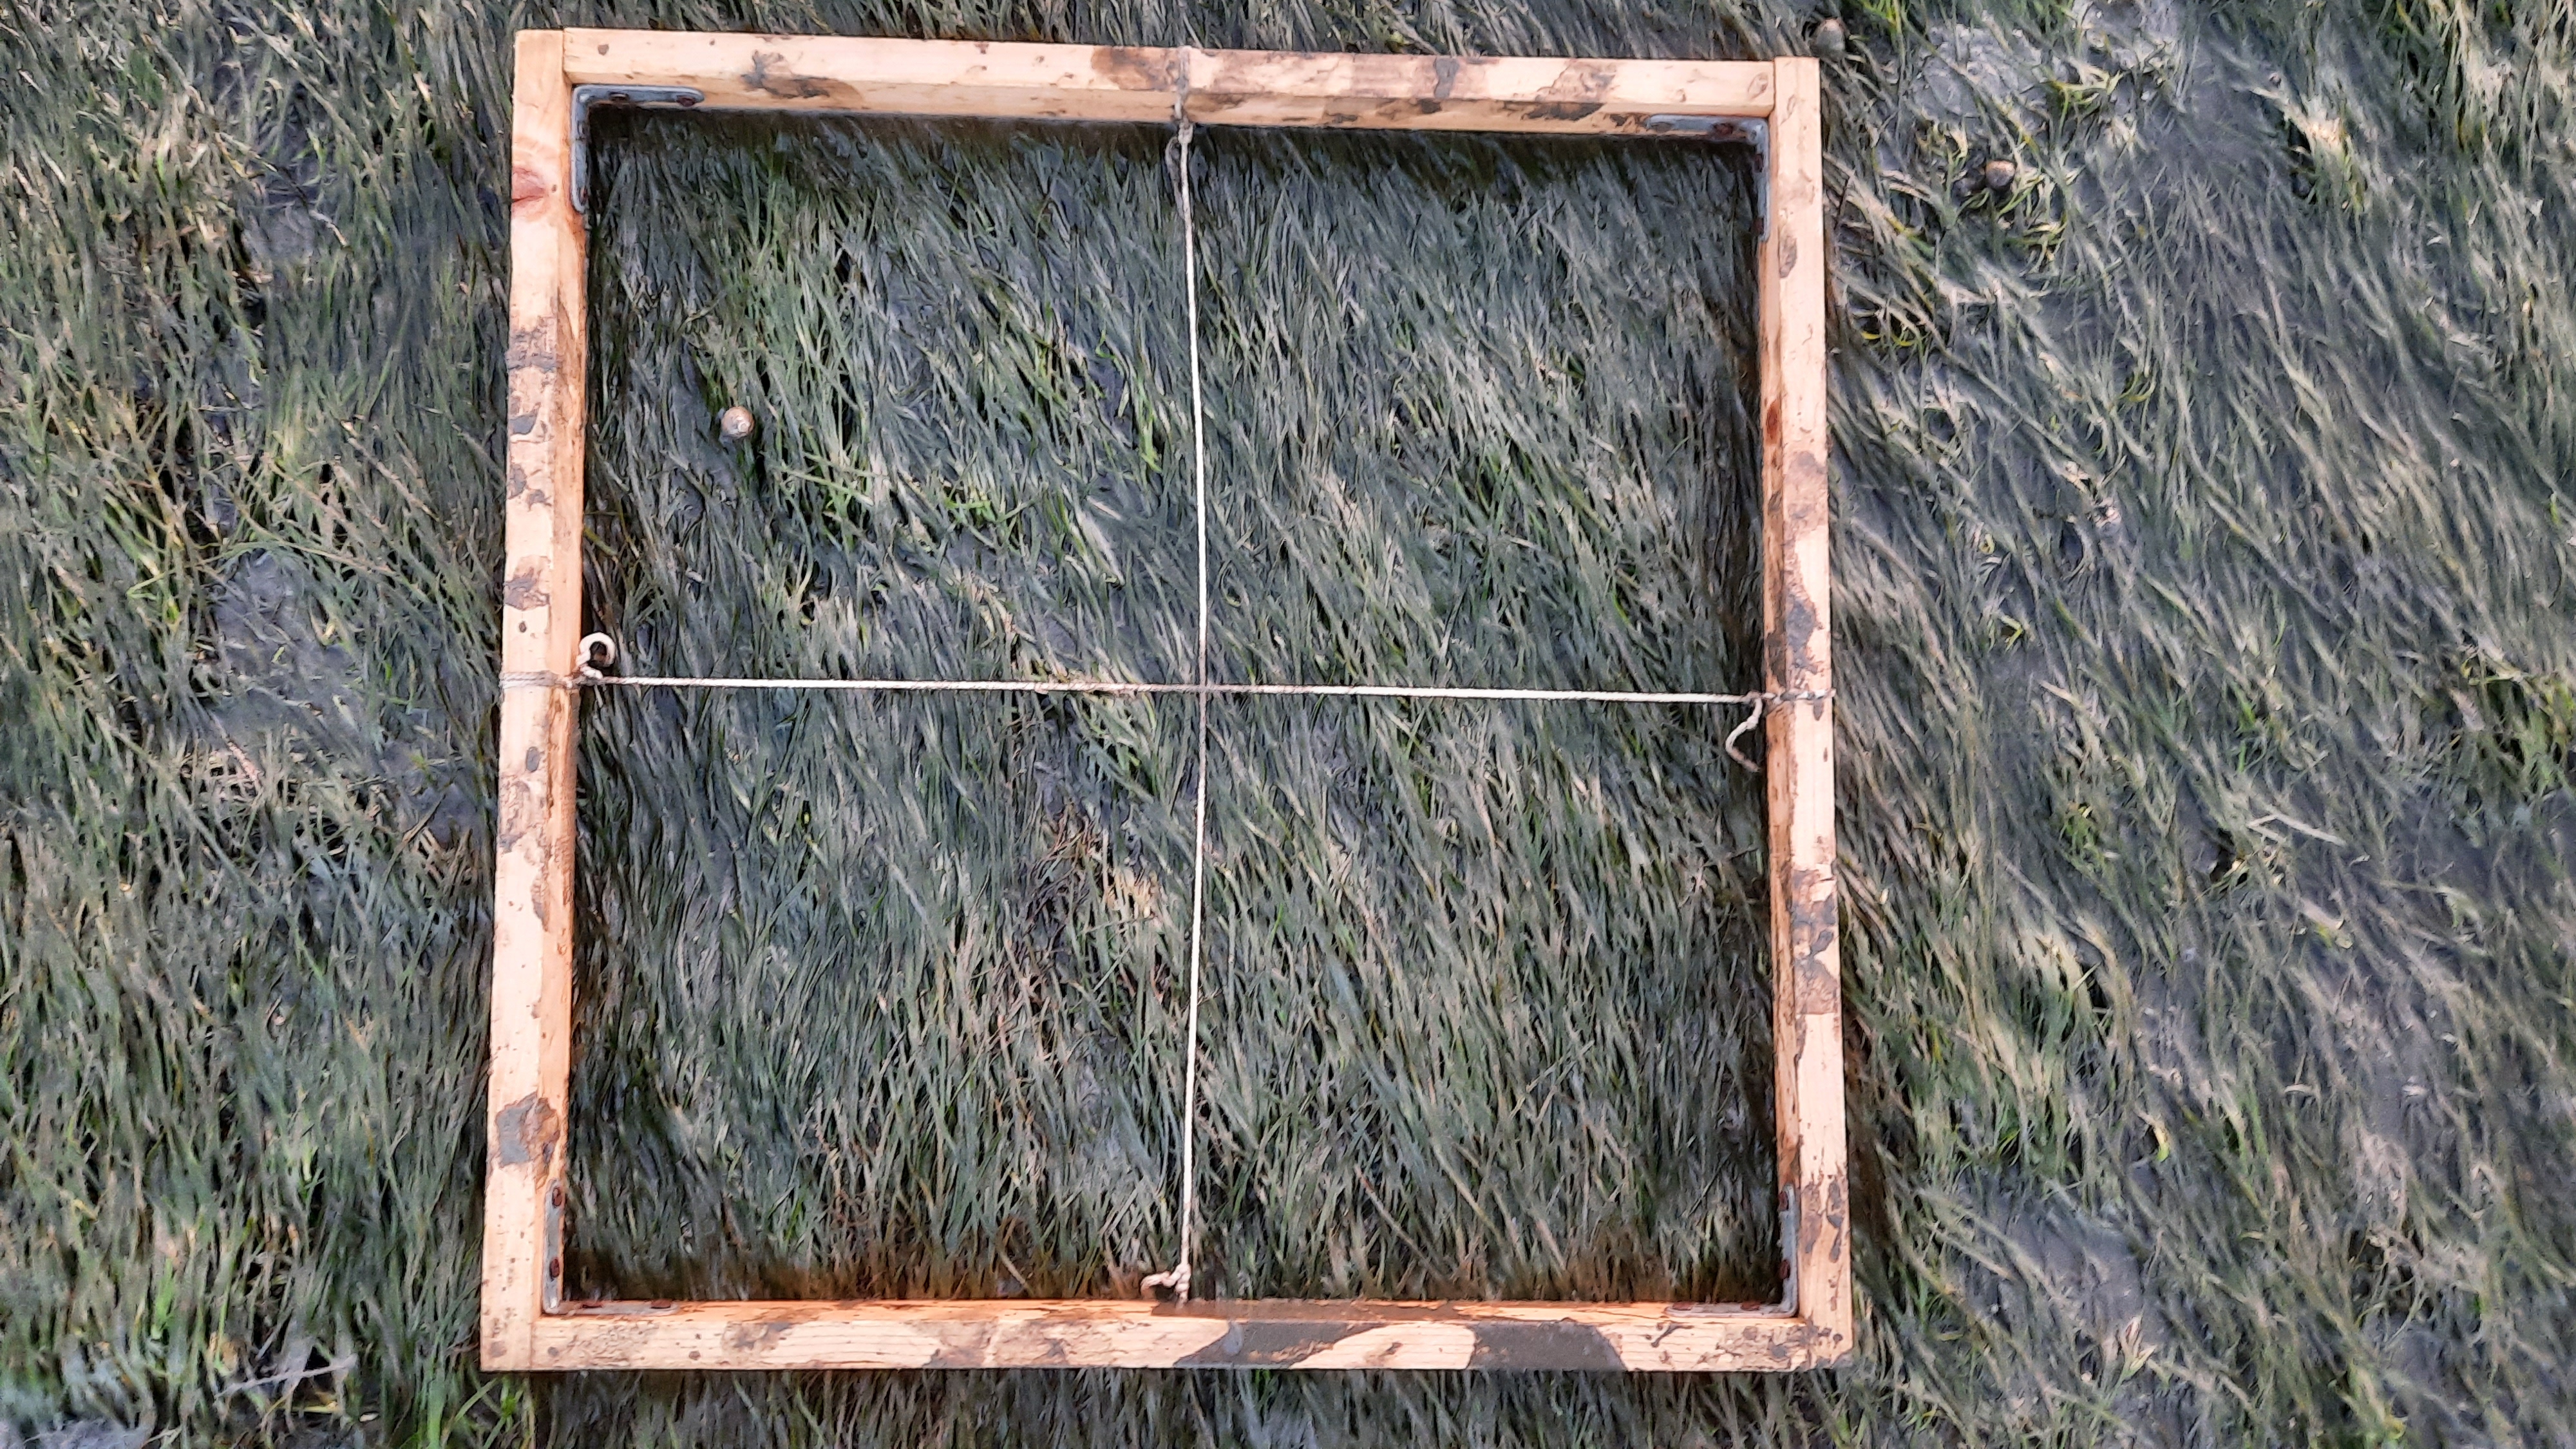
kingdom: Plantae
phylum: Tracheophyta
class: Liliopsida
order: Alismatales
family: Zosteraceae
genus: Zostera
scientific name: Zostera noltii
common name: Dwarf eelgrass
